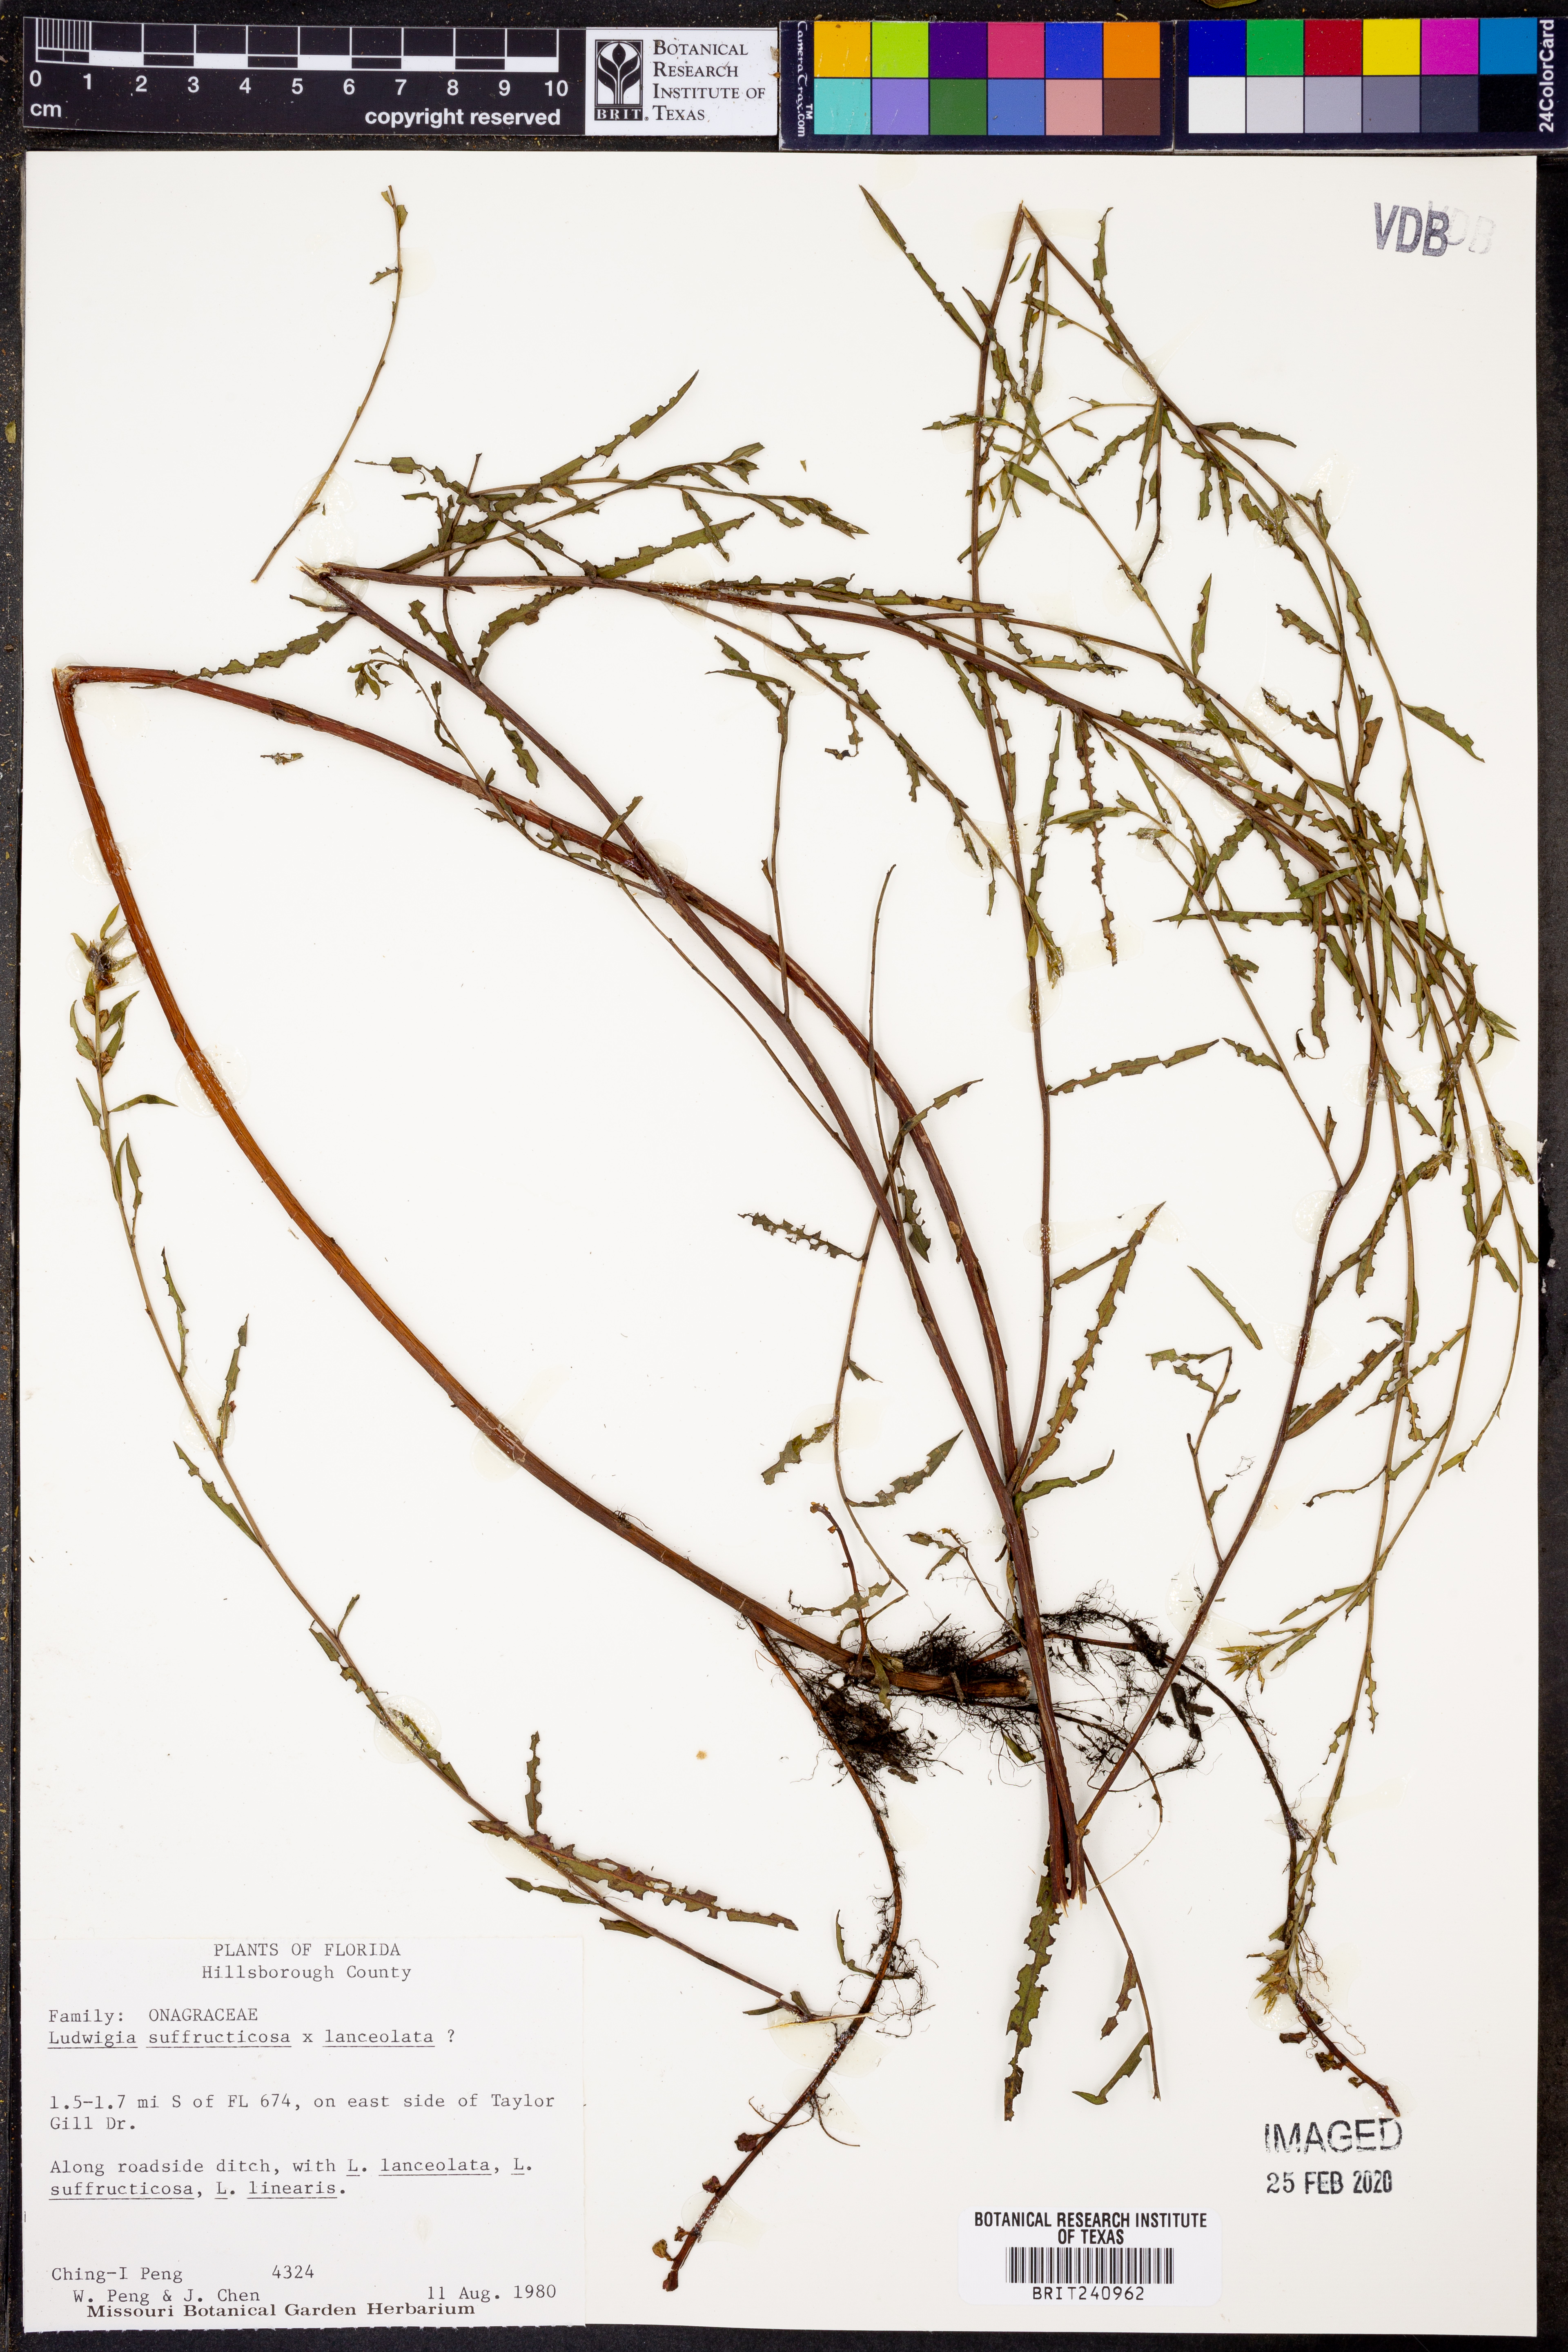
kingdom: Plantae
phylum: Tracheophyta
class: Magnoliopsida
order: Myrtales
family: Onagraceae
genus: Ludwigia
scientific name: Ludwigia suffruticosa
